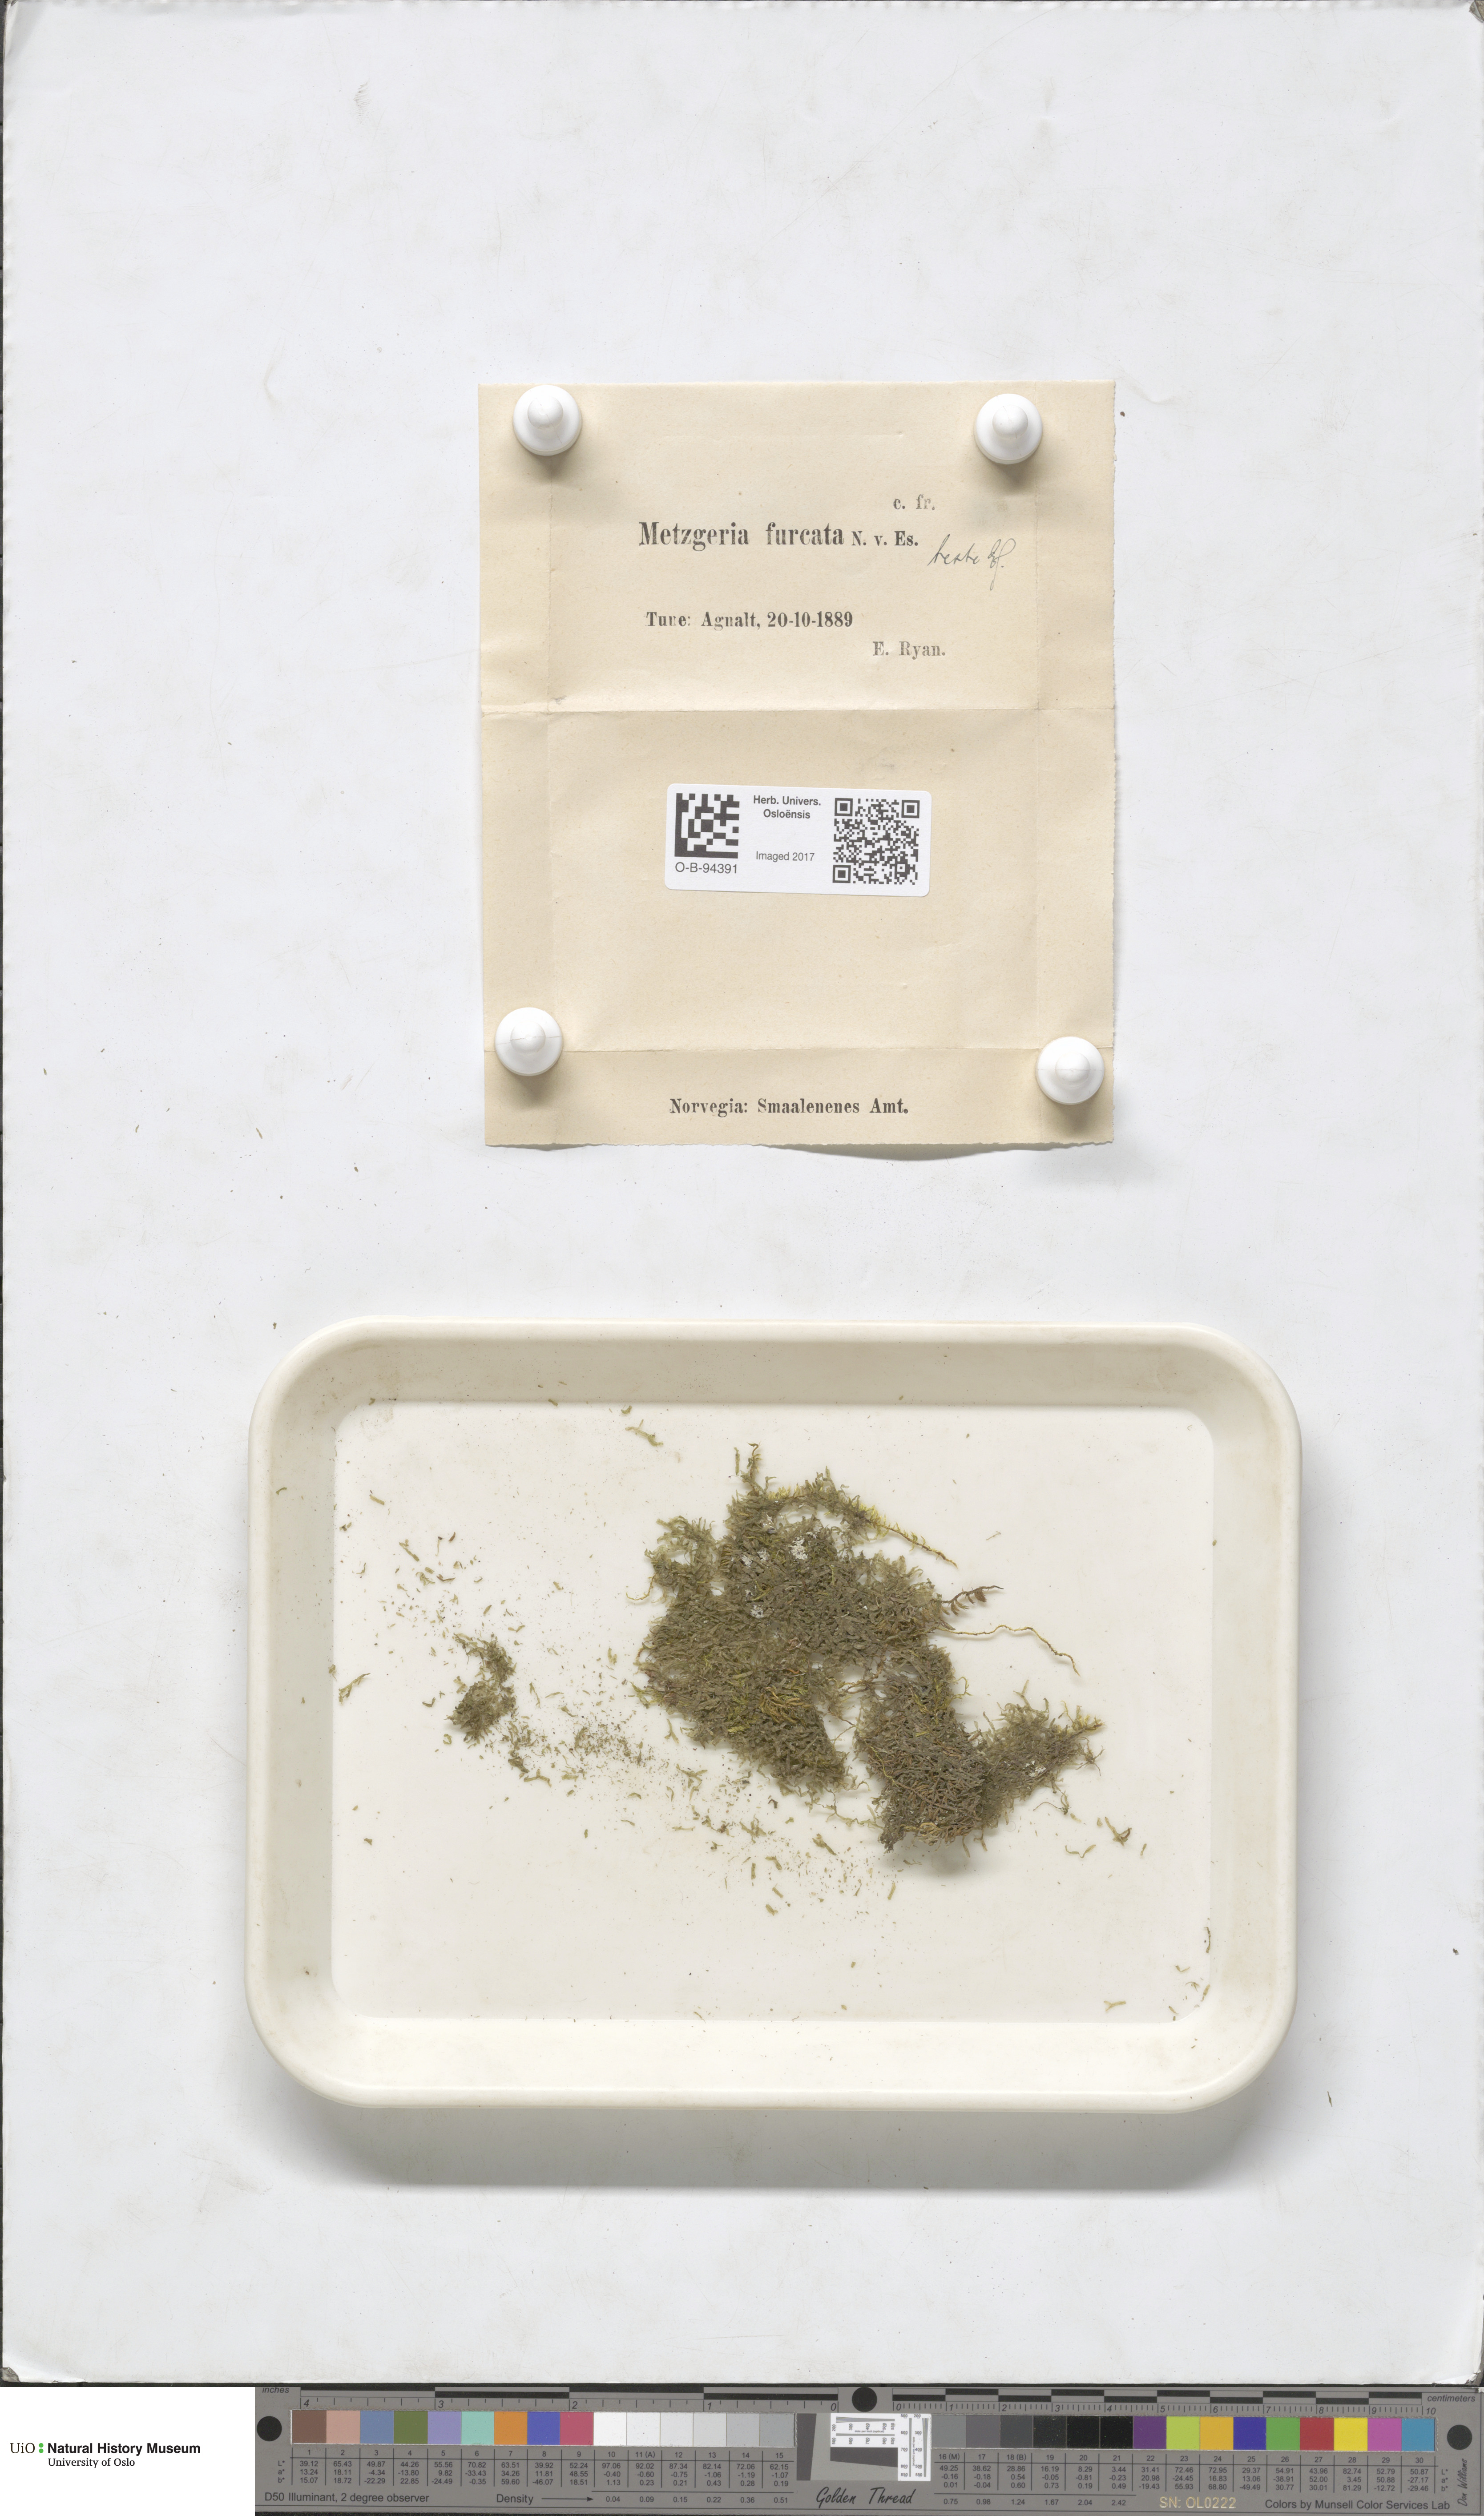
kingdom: Plantae
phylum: Marchantiophyta
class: Jungermanniopsida
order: Metzgeriales
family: Metzgeriaceae
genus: Metzgeria
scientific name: Metzgeria furcata
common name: Forked veilwort
